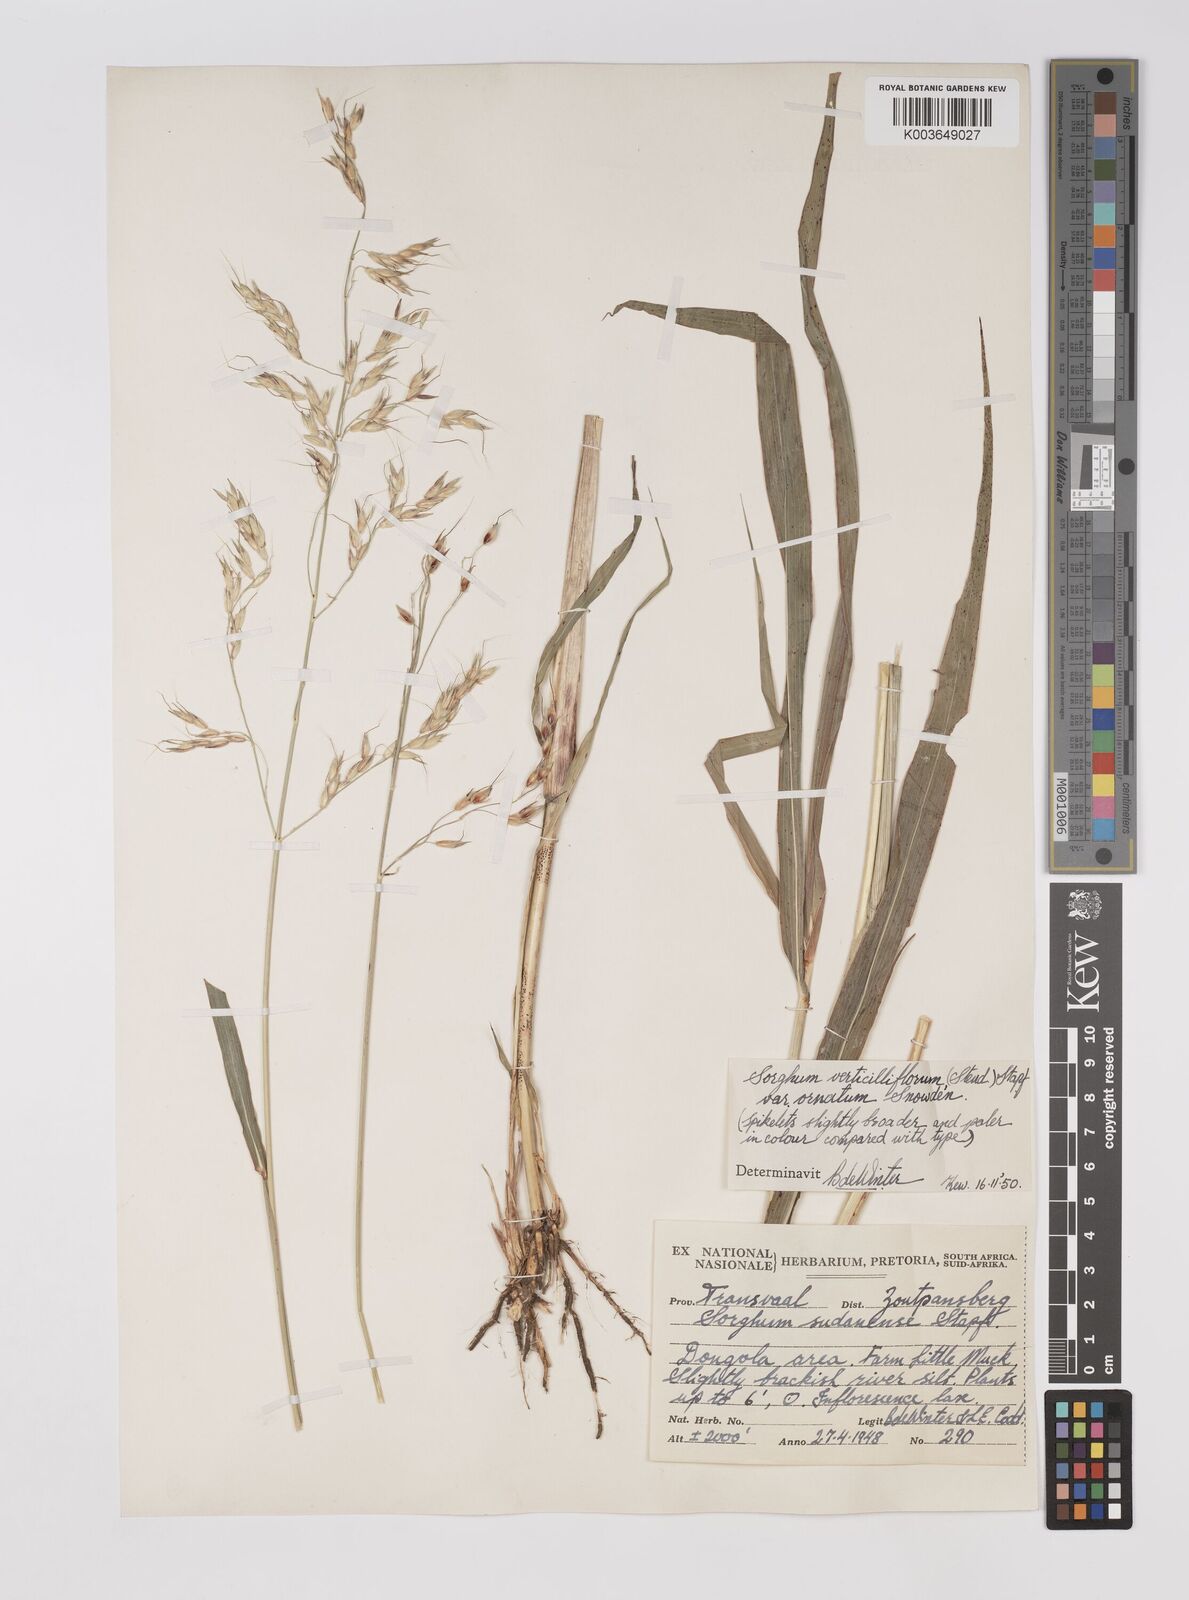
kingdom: Plantae
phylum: Tracheophyta
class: Liliopsida
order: Poales
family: Poaceae
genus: Sorghum
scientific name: Sorghum arundinaceum
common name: Sorghum
